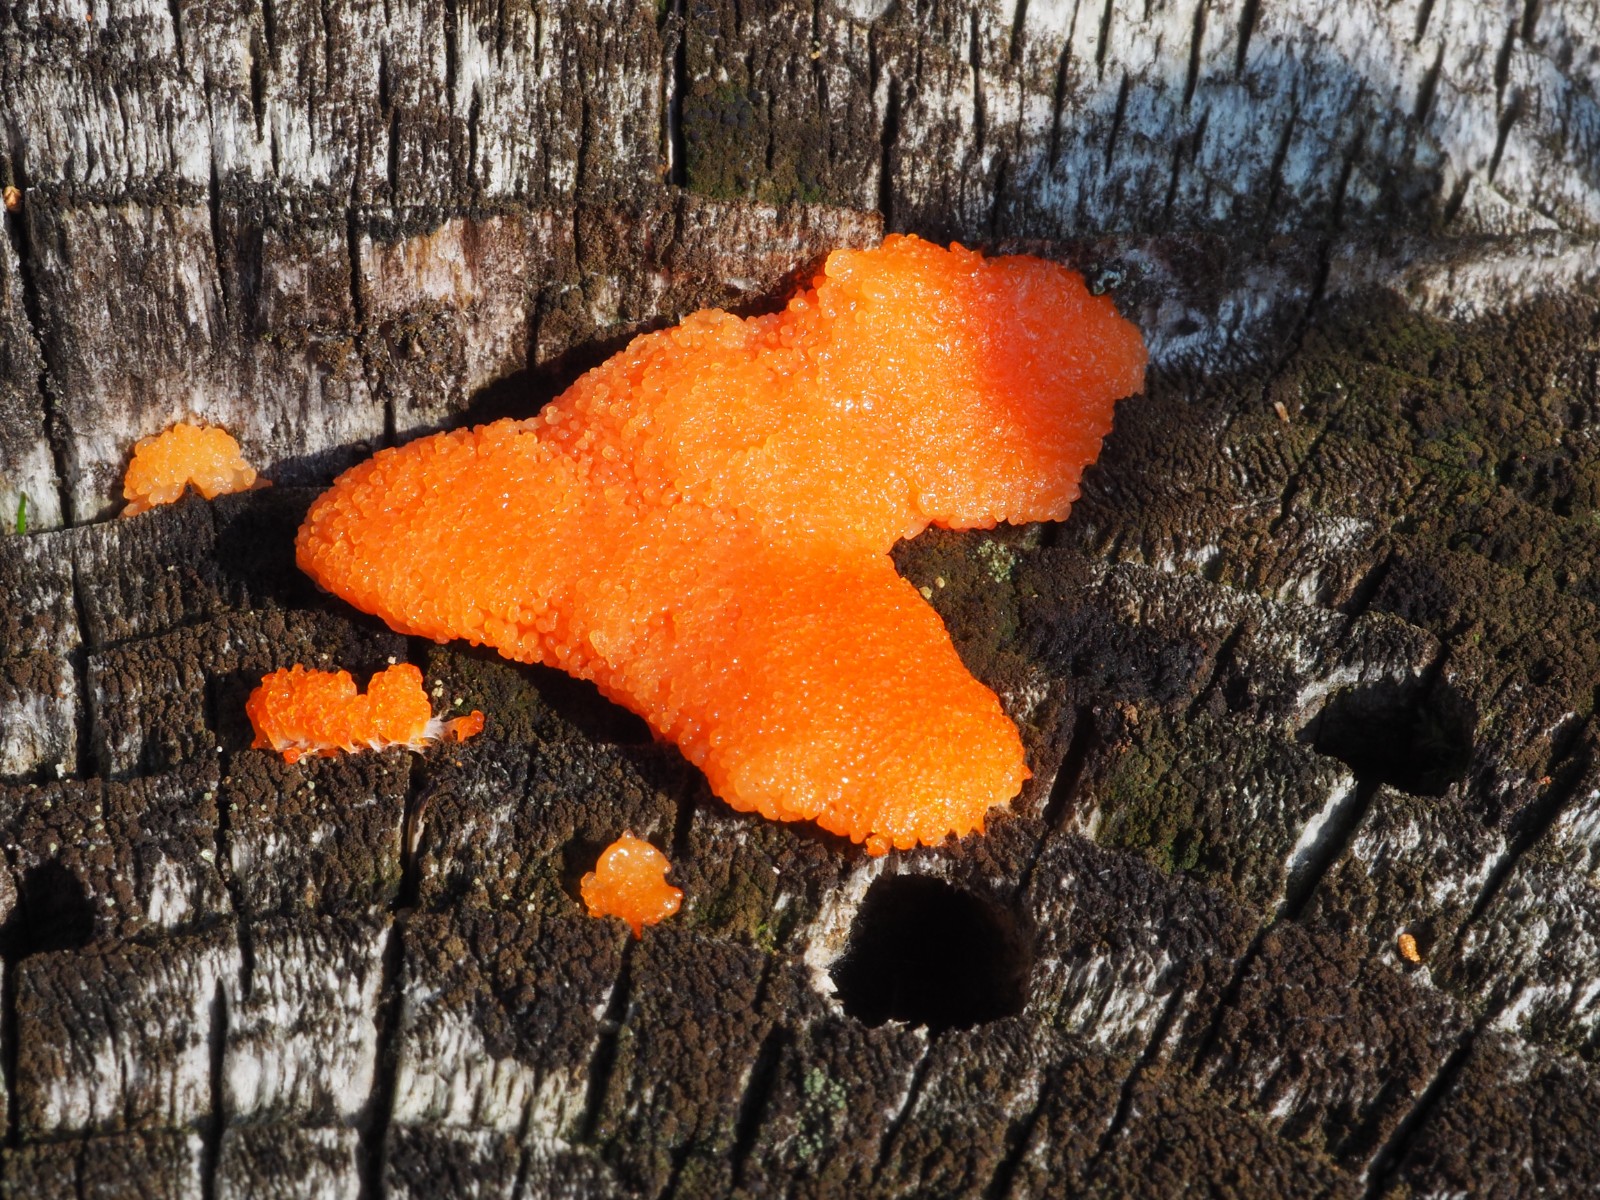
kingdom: Protozoa
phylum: Mycetozoa
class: Myxomycetes
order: Cribrariales
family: Tubiferaceae
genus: Tubifera
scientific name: Tubifera ferruginosa
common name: kanel-støvrør
